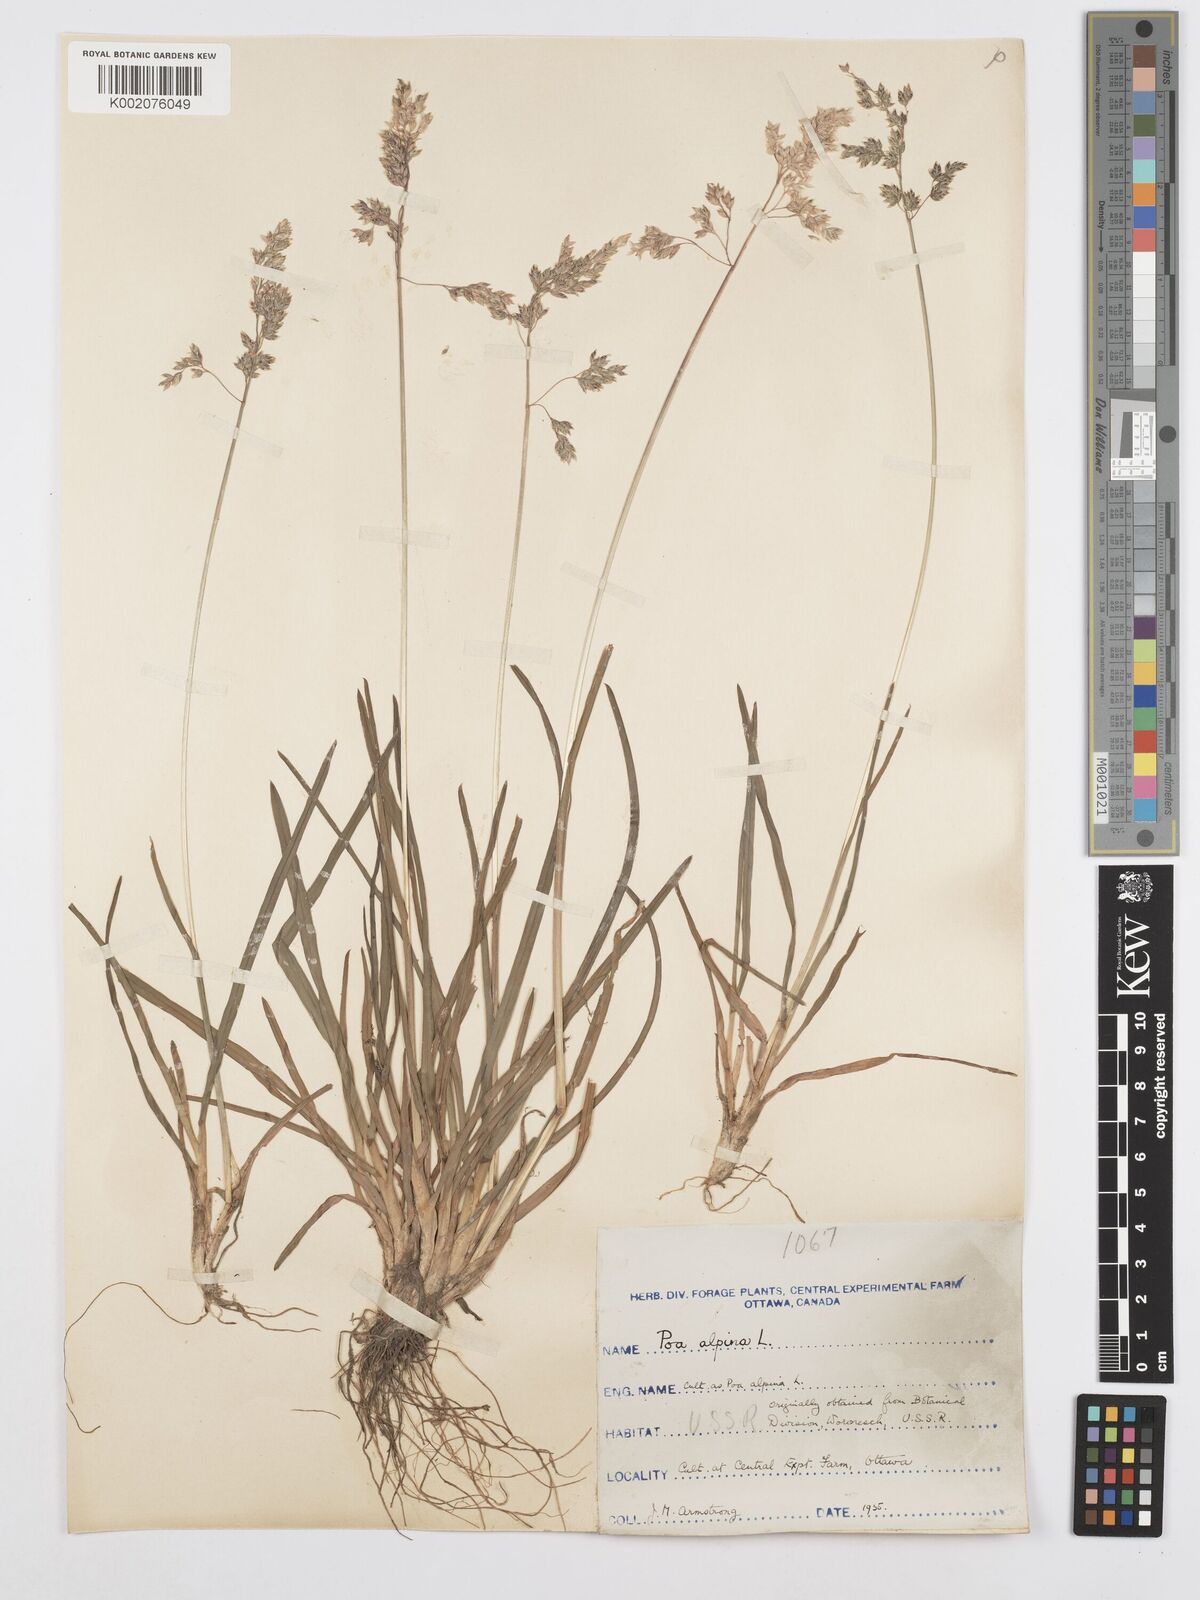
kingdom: Plantae
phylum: Tracheophyta
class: Liliopsida
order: Poales
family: Poaceae
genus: Poa
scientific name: Poa alpina
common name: Alpine bluegrass
